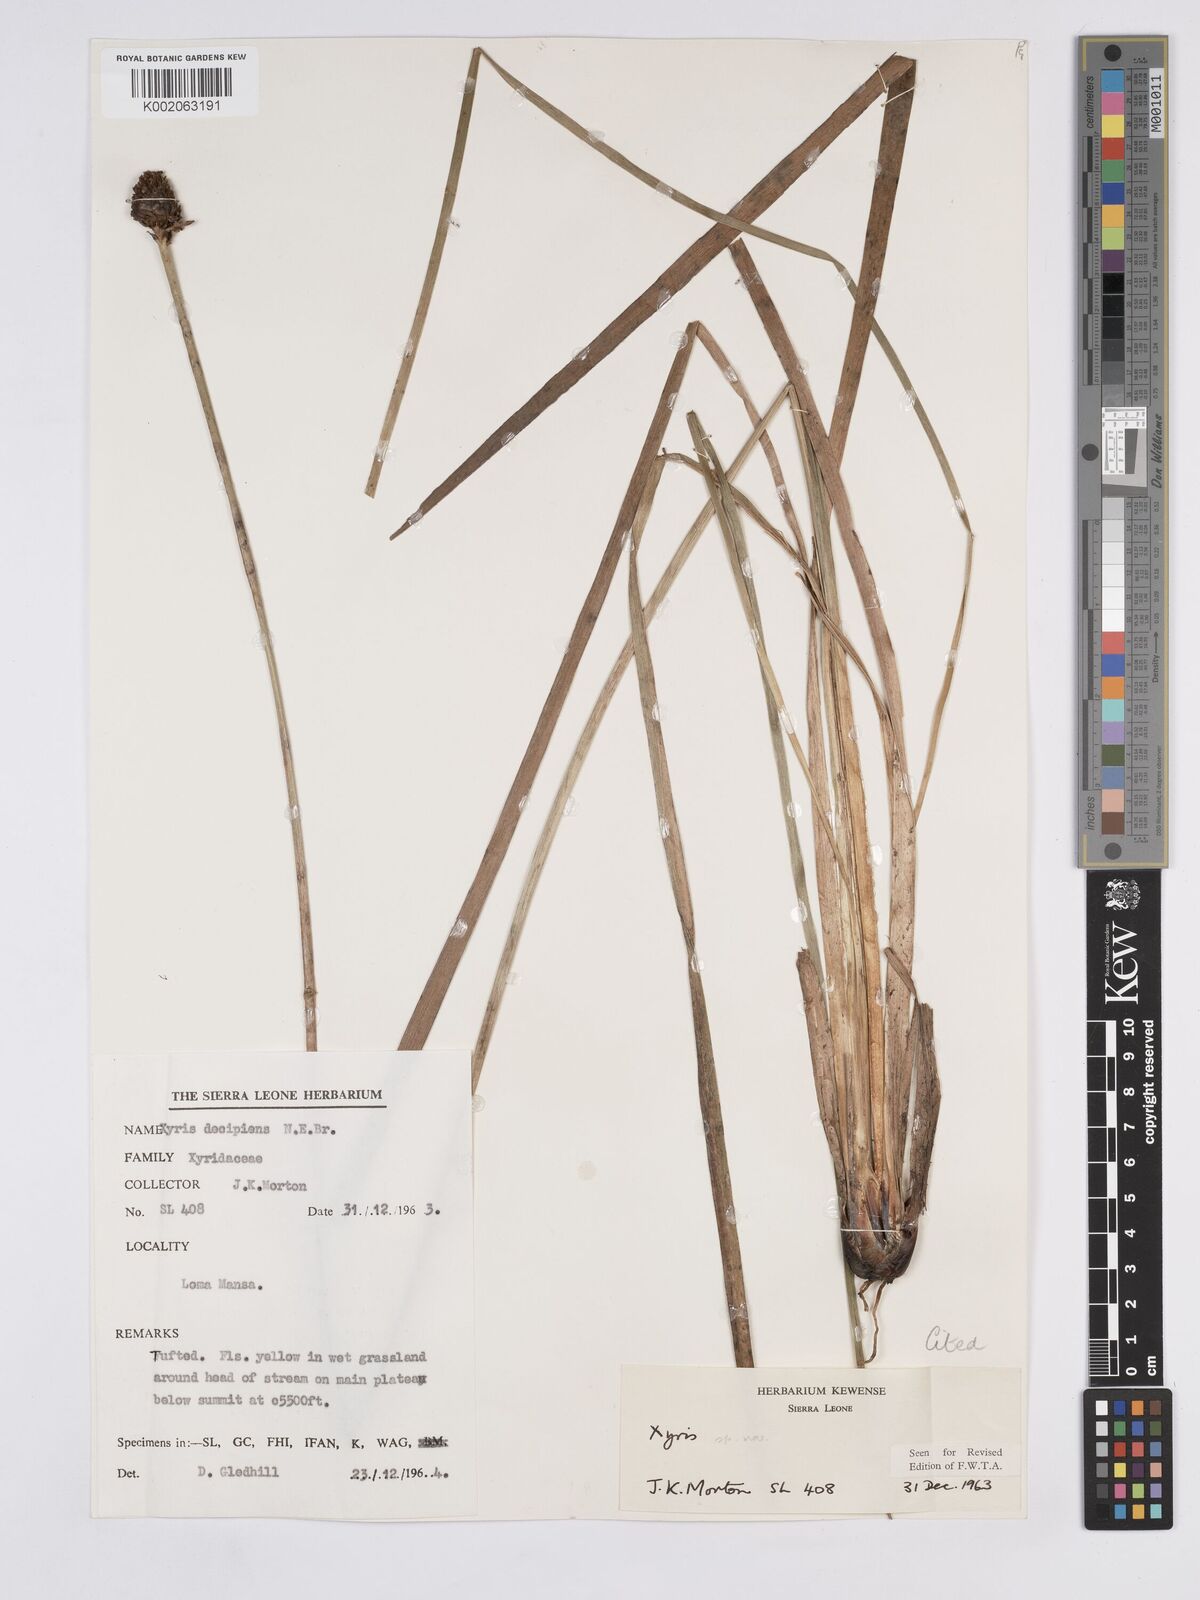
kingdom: Plantae
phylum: Tracheophyta
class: Liliopsida
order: Poales
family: Xyridaceae
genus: Xyris
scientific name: Xyris leonensis
